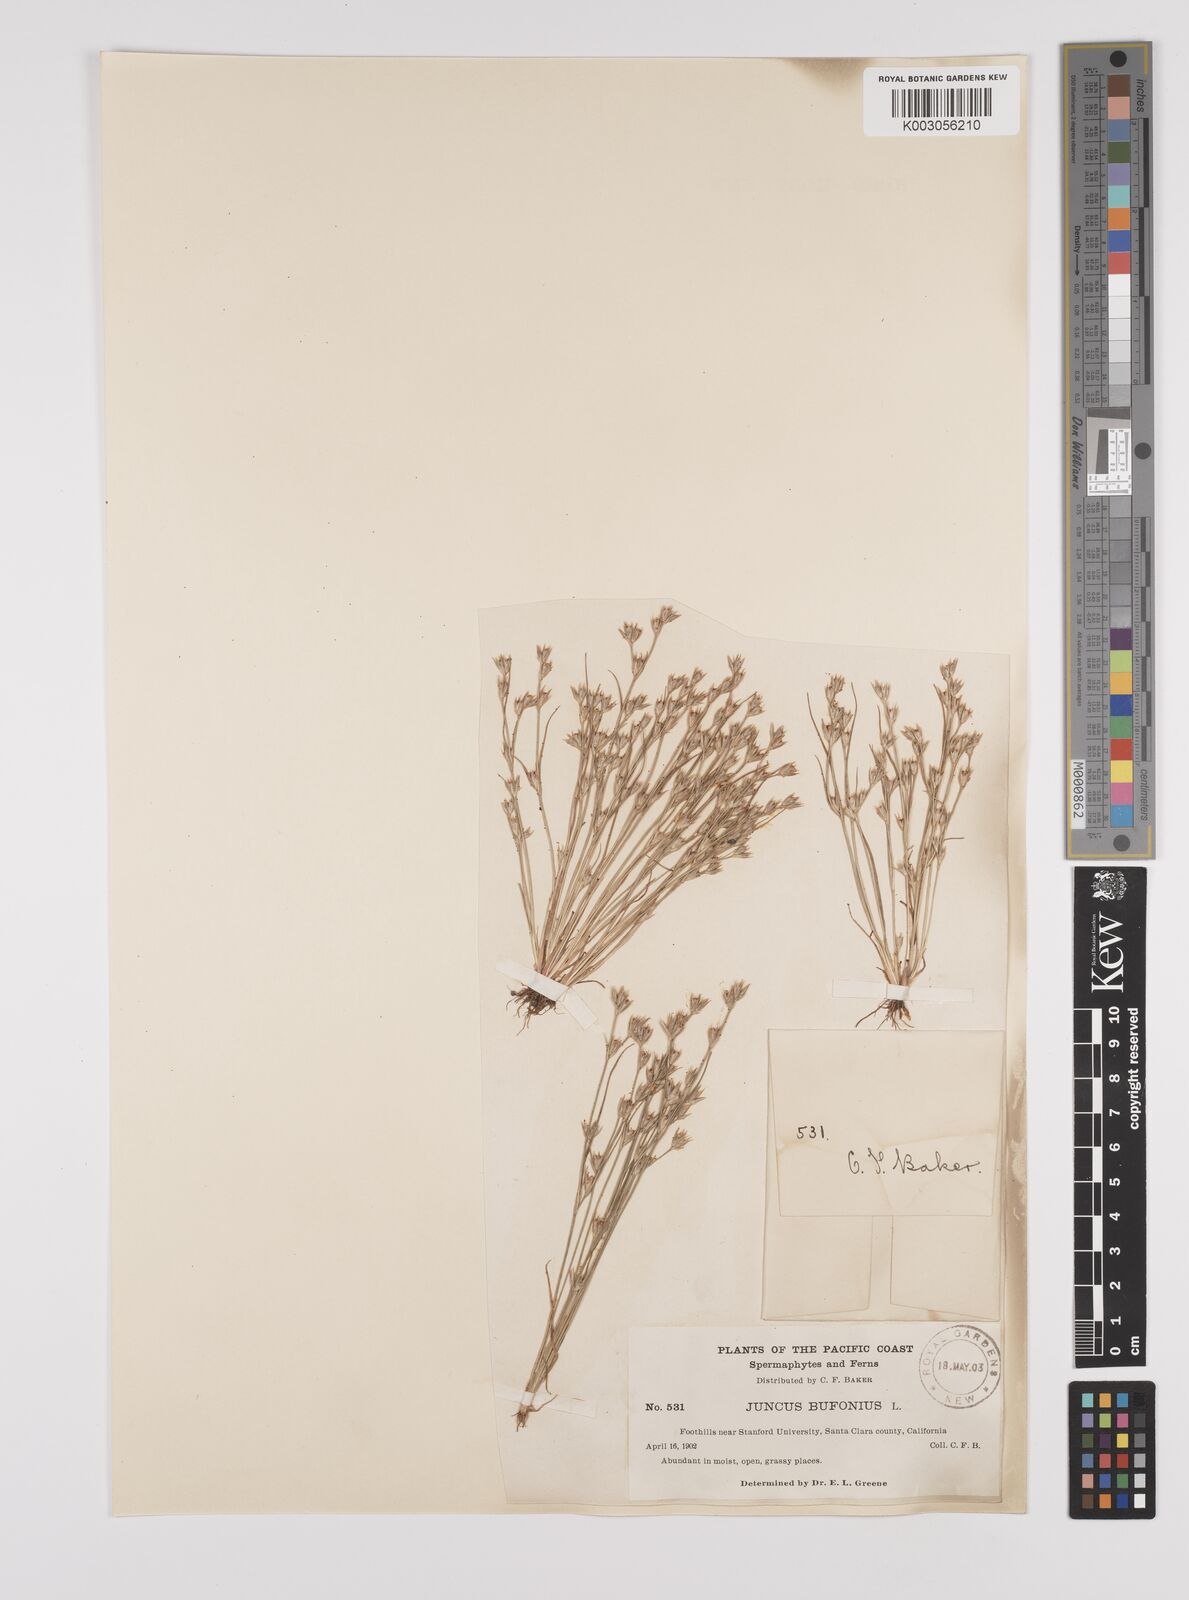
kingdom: Plantae
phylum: Tracheophyta
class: Liliopsida
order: Poales
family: Juncaceae
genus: Juncus
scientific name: Juncus bufonius
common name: Toad rush
